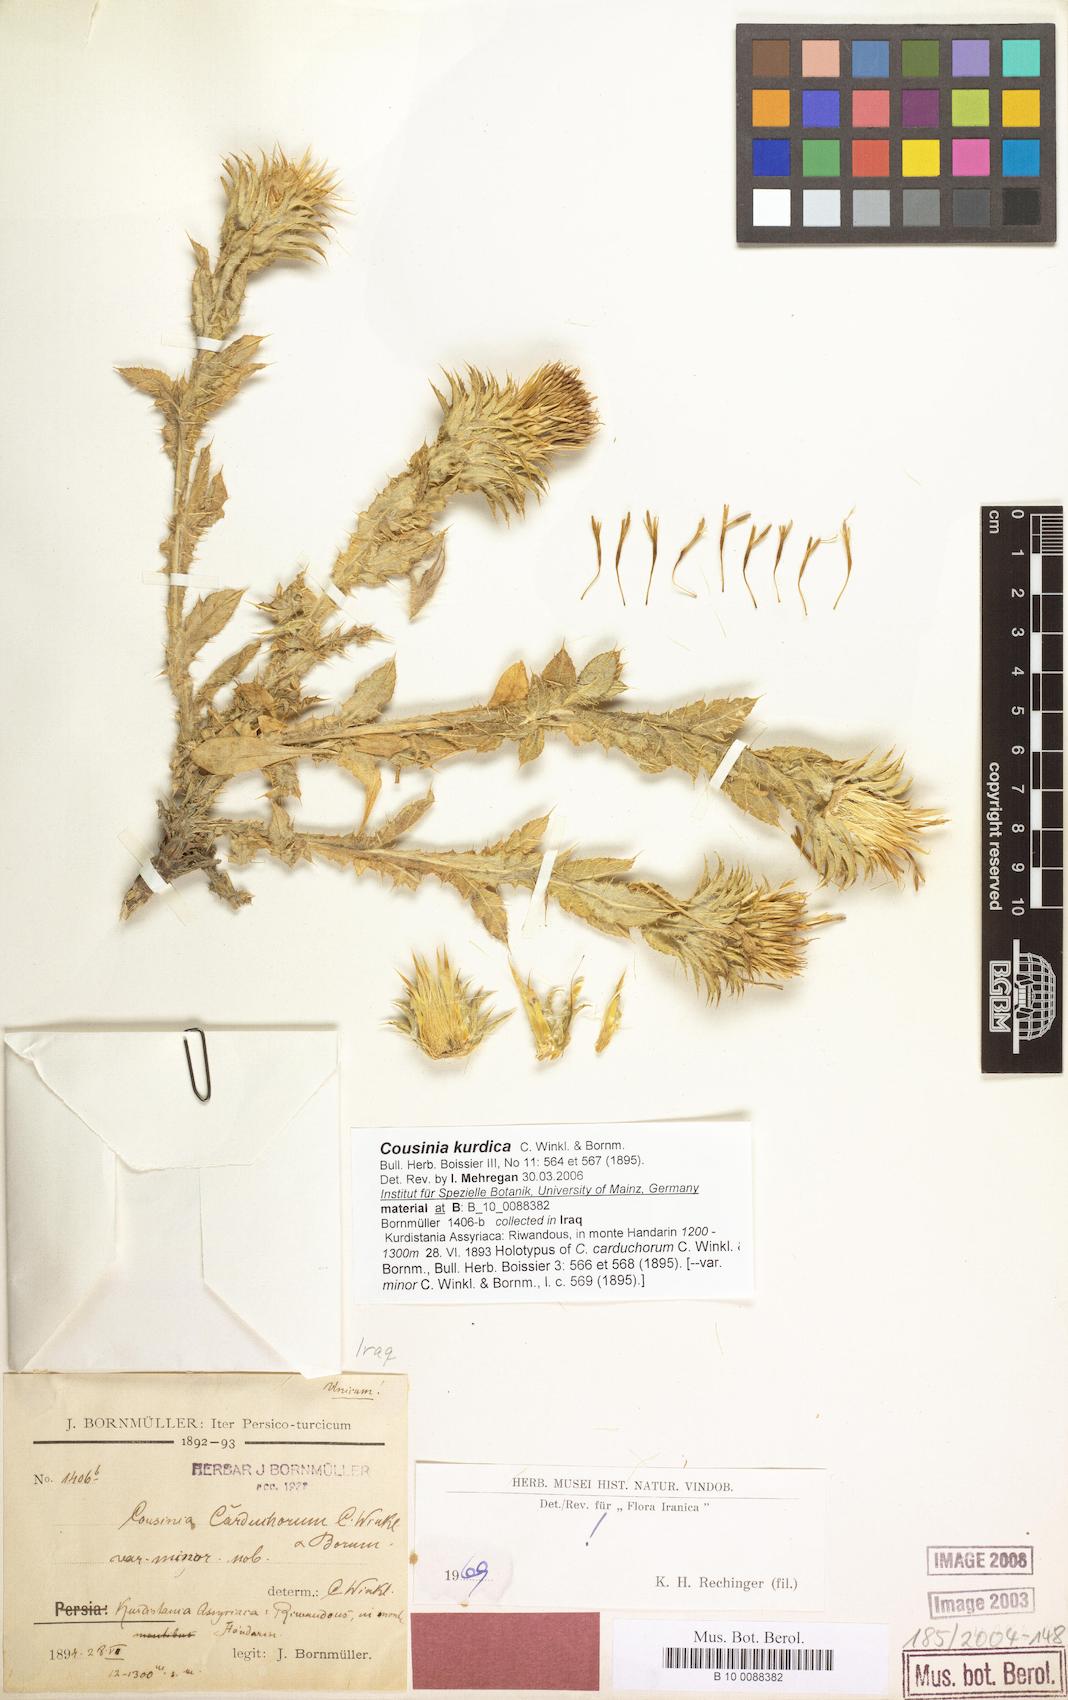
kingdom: Plantae
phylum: Tracheophyta
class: Magnoliopsida
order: Asterales
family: Asteraceae
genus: Cousinia
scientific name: Cousinia odontolepis
